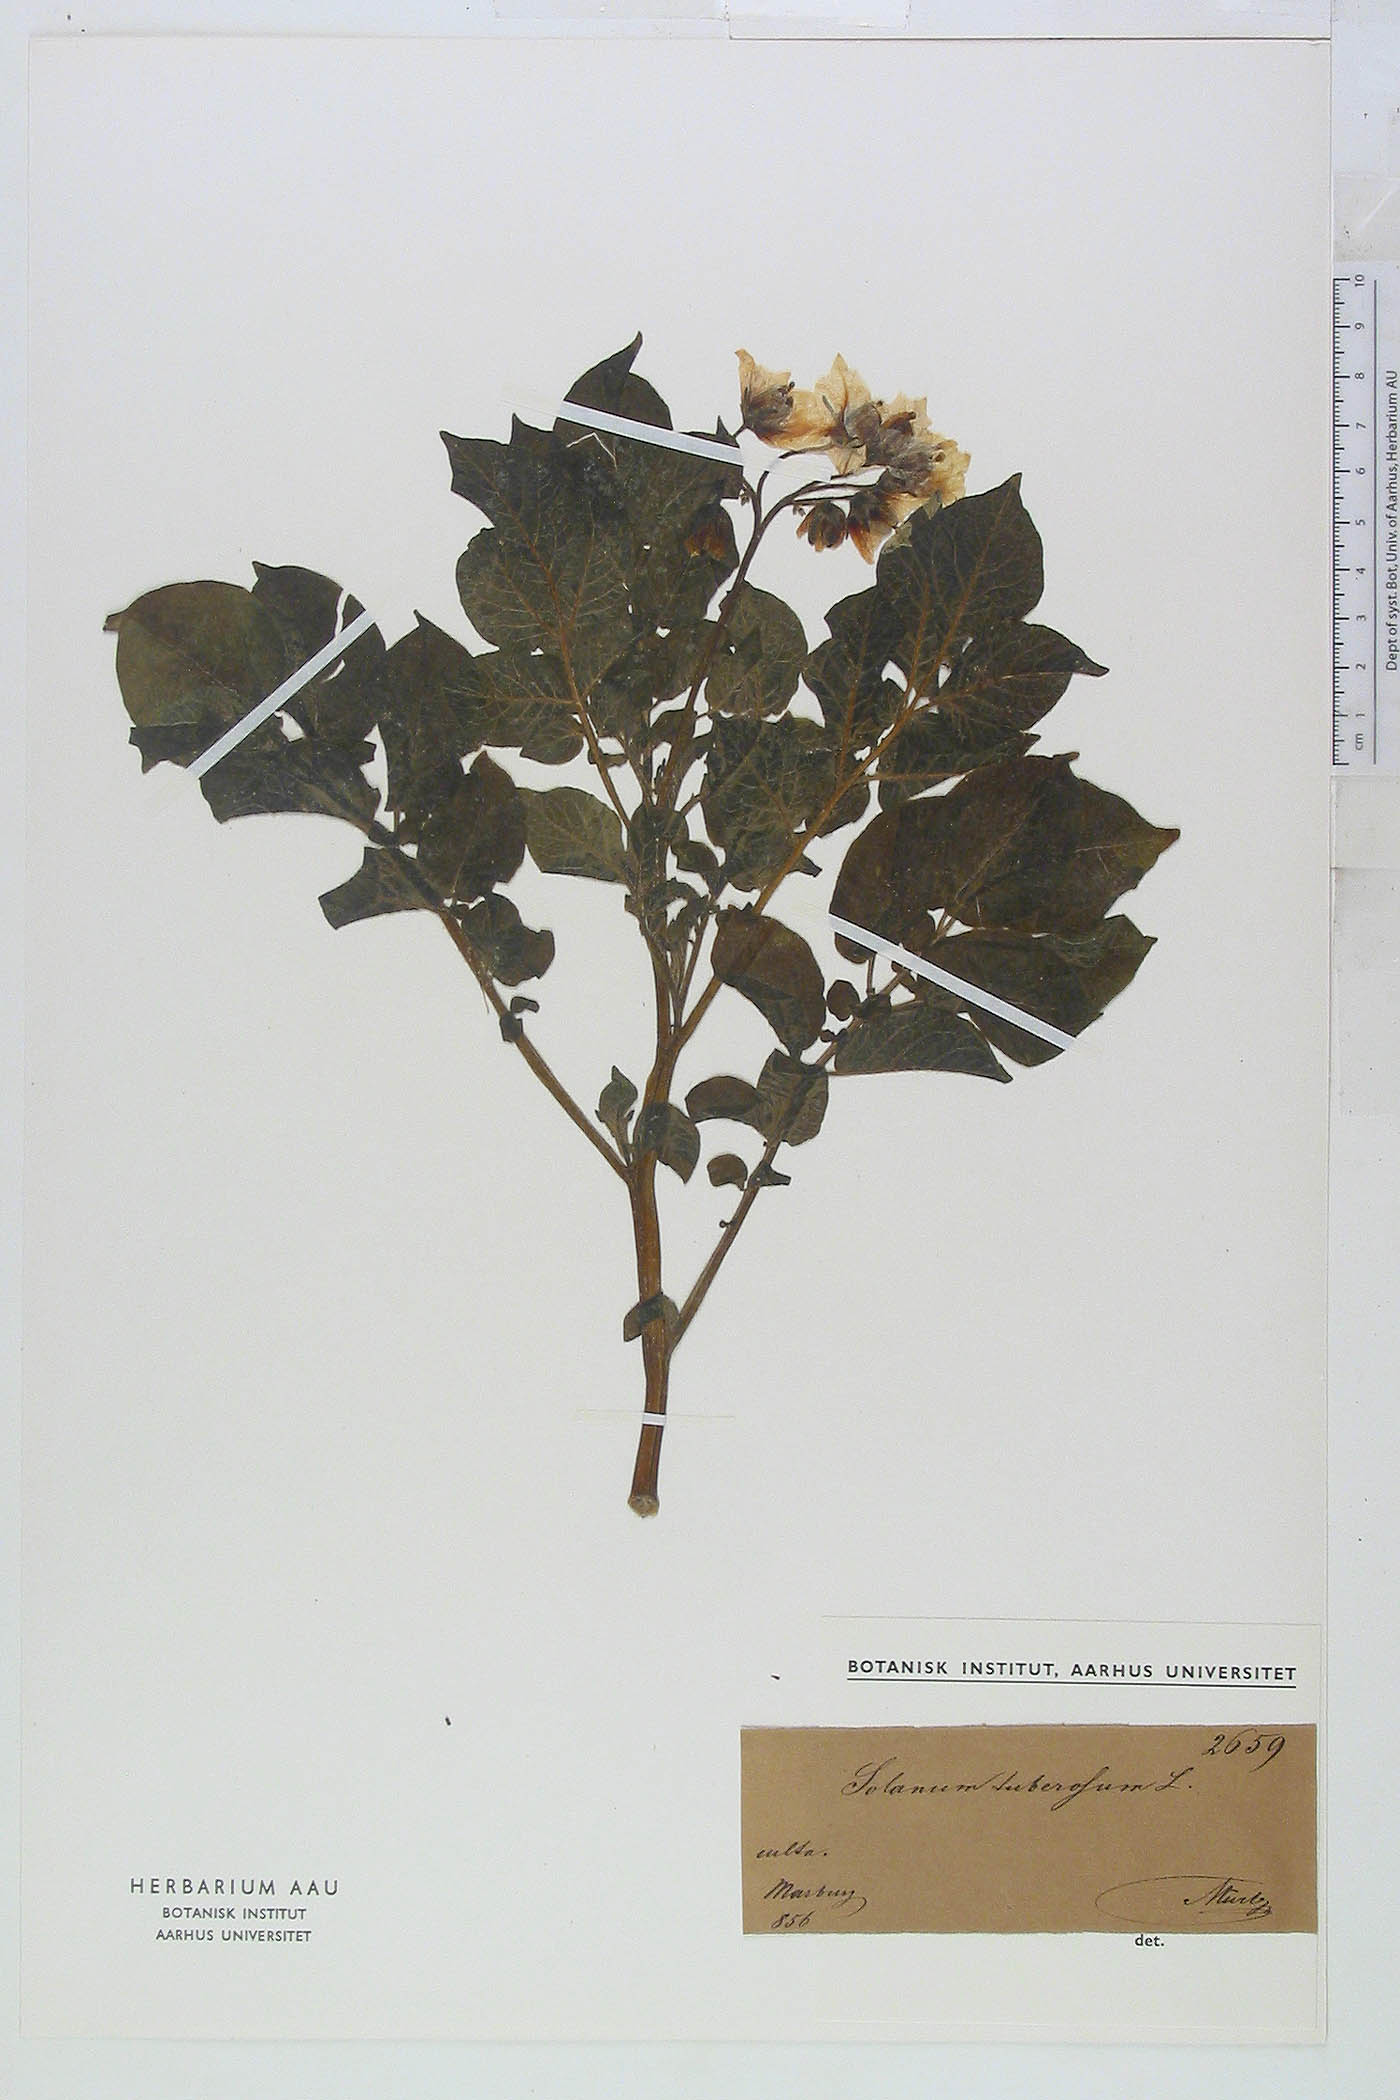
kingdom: Plantae
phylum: Tracheophyta
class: Magnoliopsida
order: Solanales
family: Solanaceae
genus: Solanum
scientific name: Solanum tuberosum
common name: Potato
